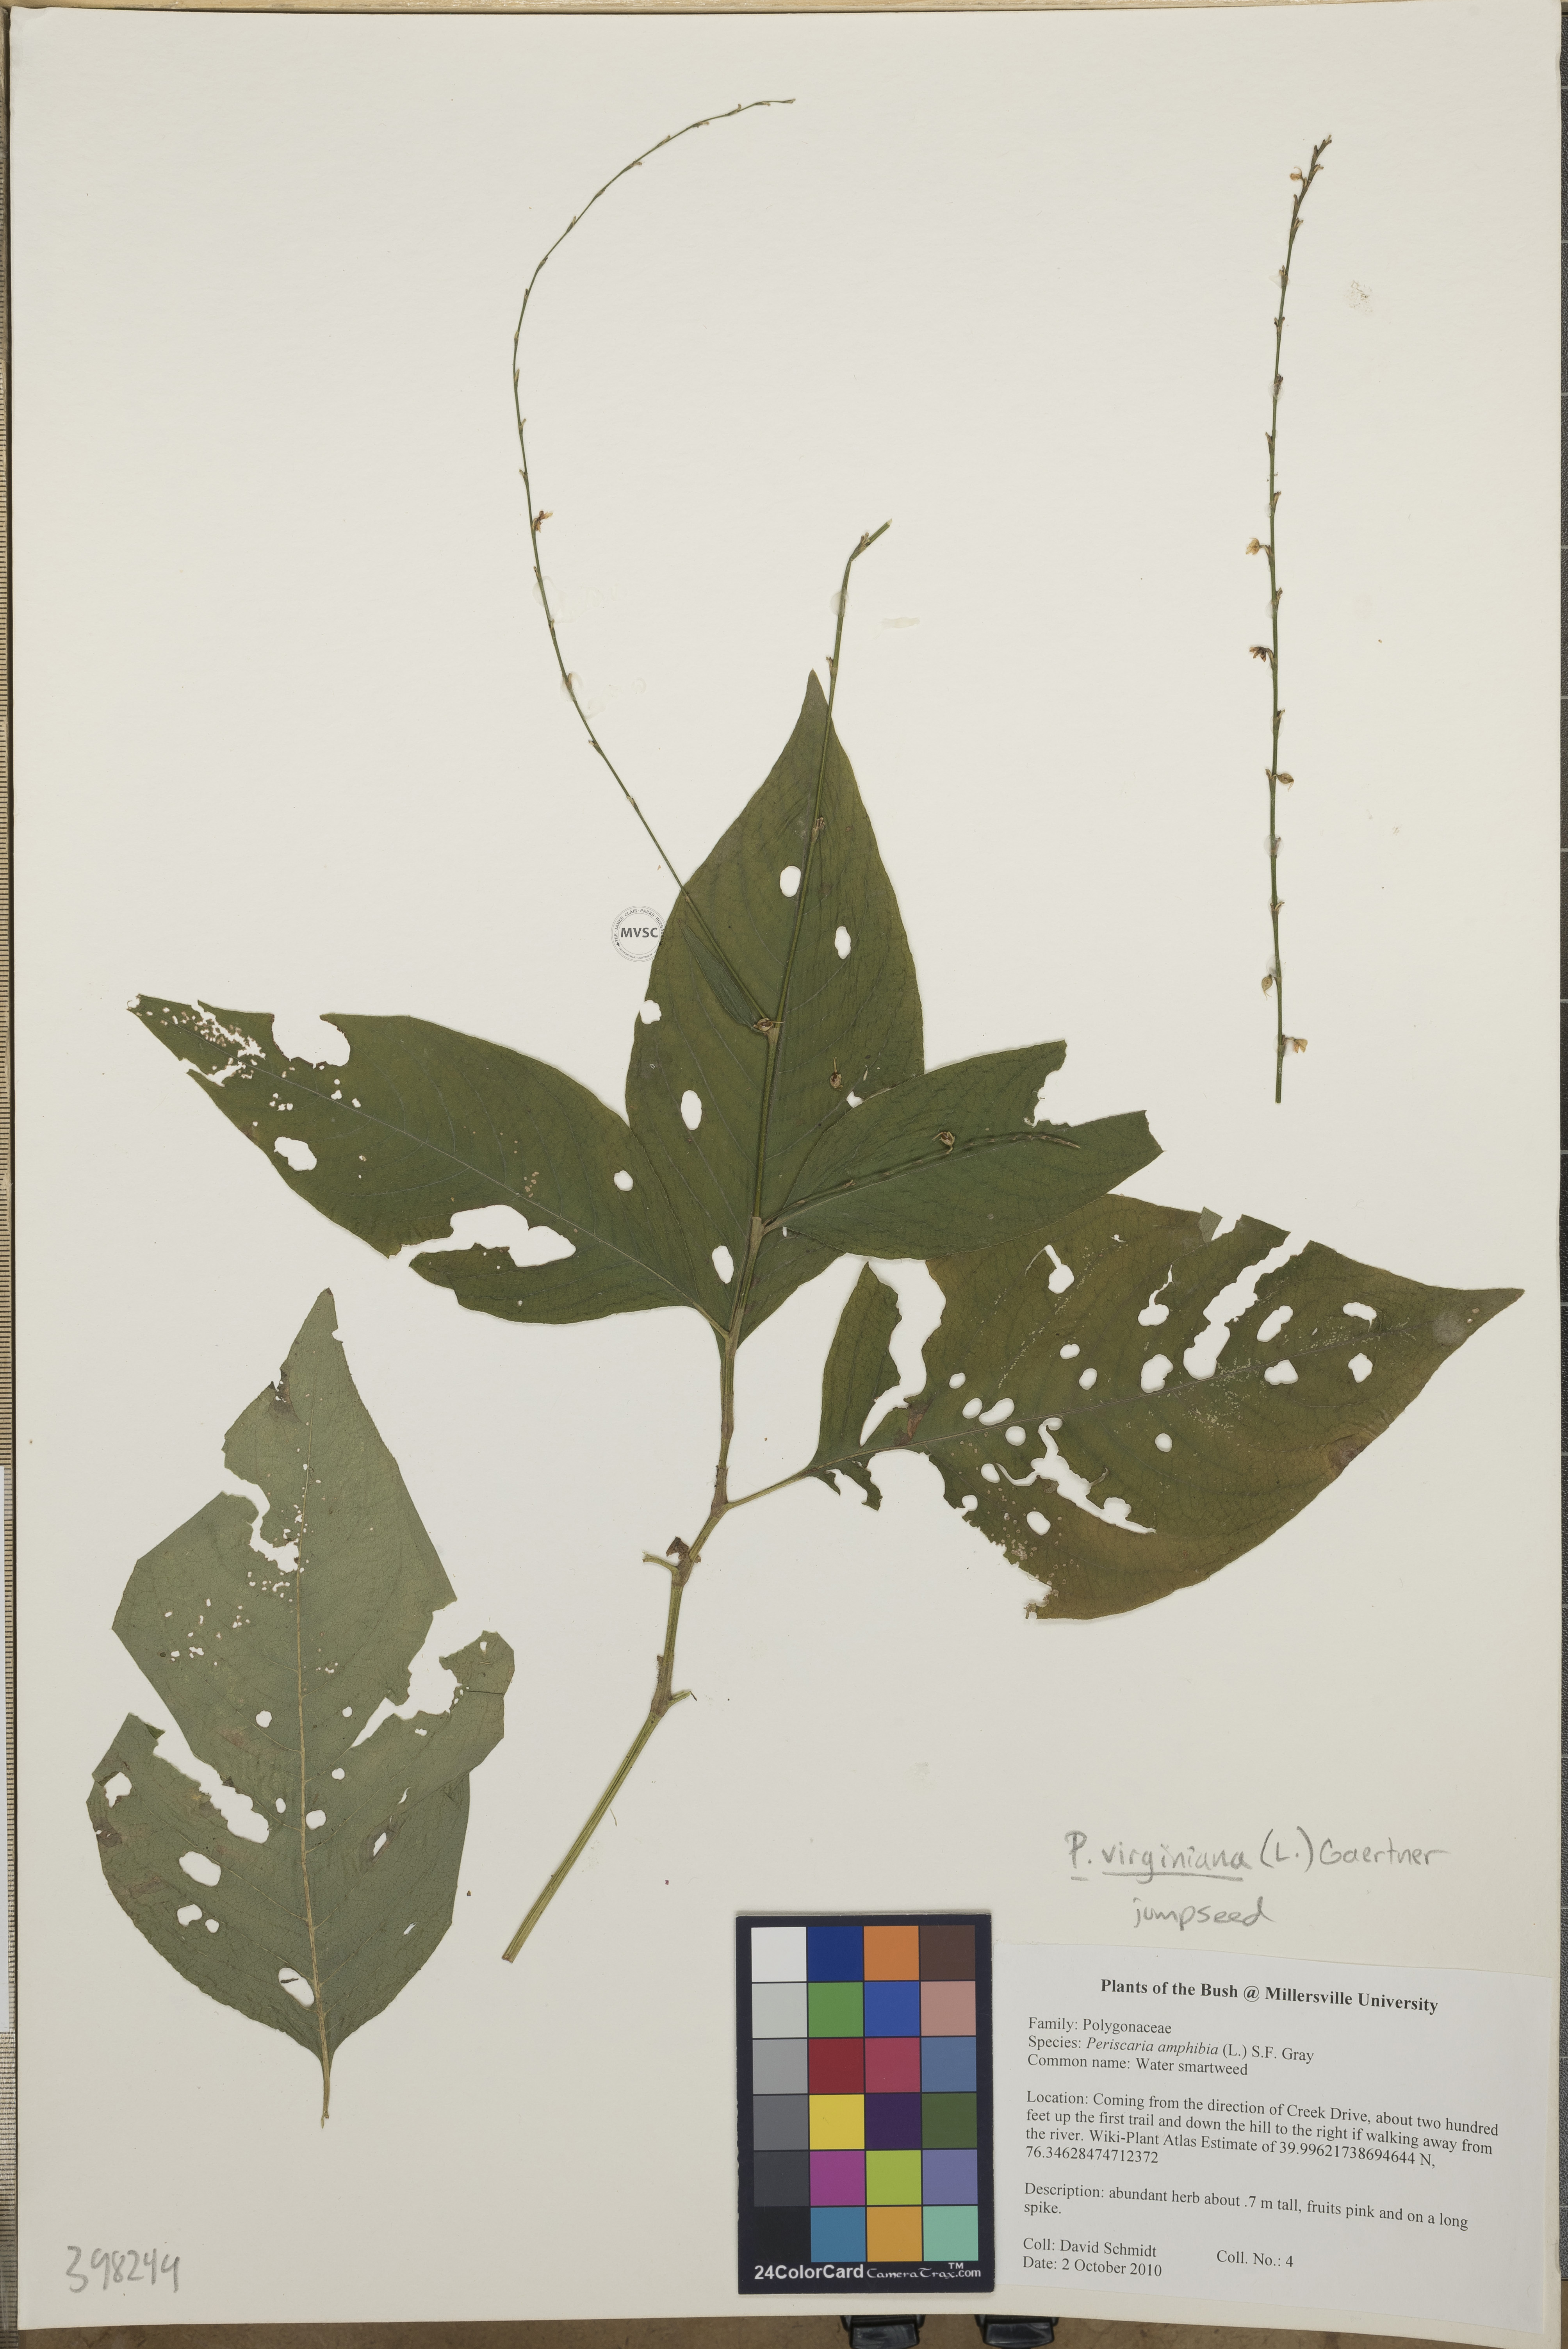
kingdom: Plantae
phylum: Tracheophyta
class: Magnoliopsida
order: Caryophyllales
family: Polygonaceae
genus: Persicaria
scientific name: Persicaria virginiana
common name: Jumpseed
